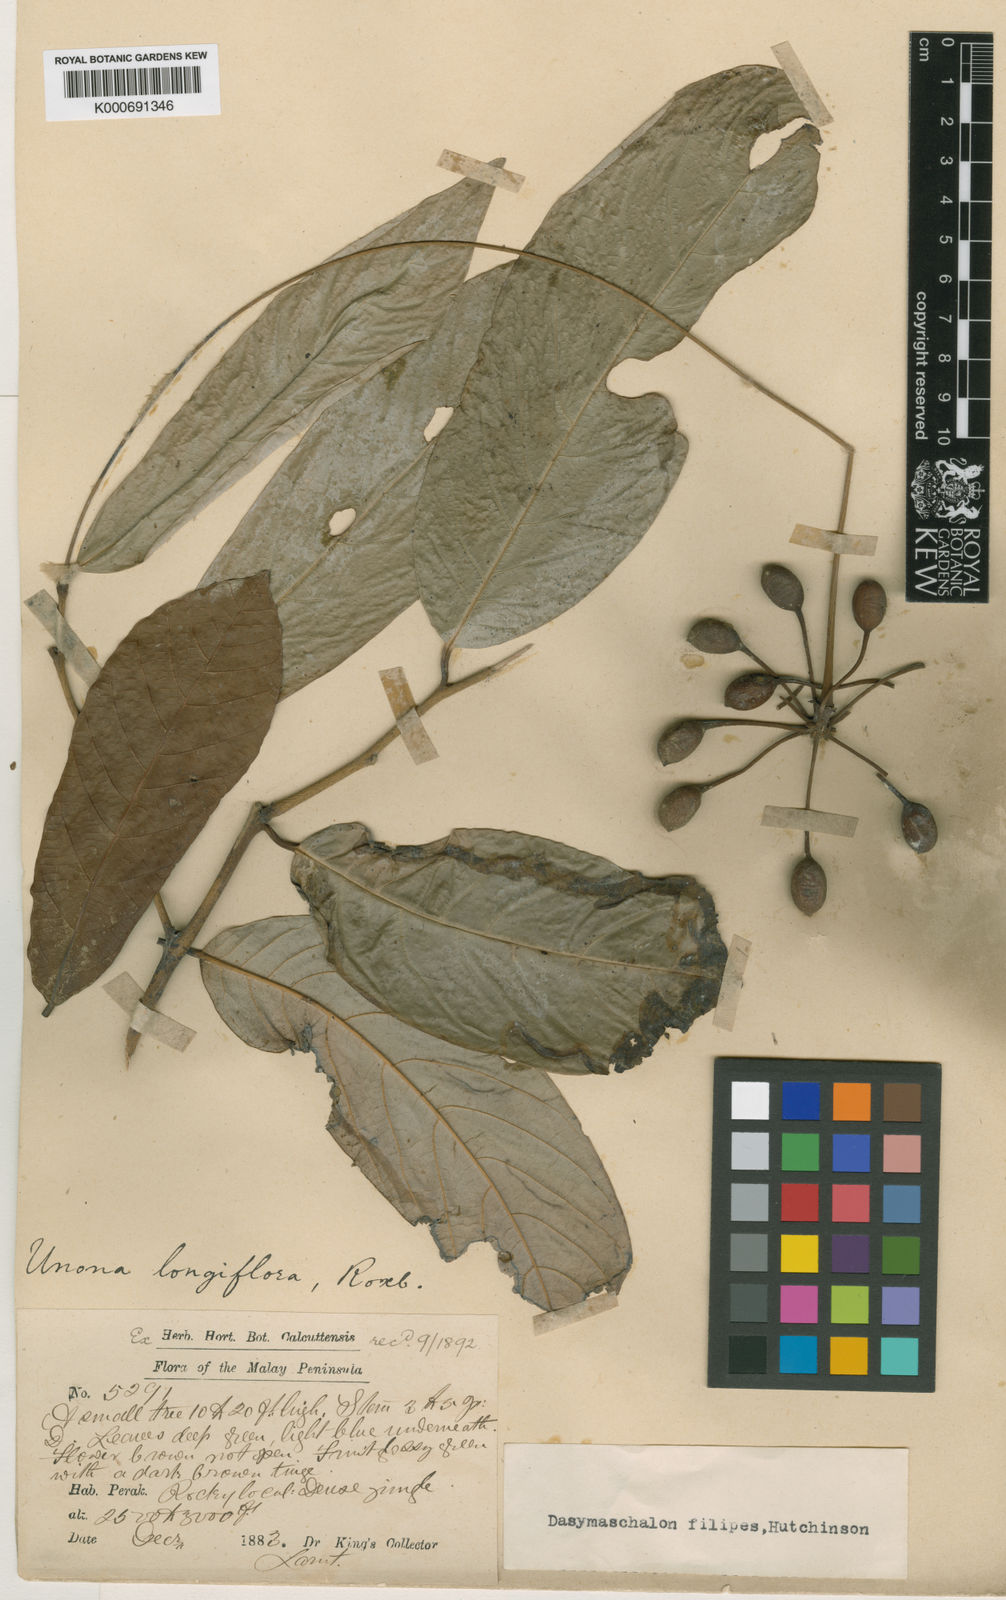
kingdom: Plantae
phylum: Tracheophyta
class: Magnoliopsida
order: Magnoliales
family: Annonaceae
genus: Dasymaschalon
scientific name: Dasymaschalon
